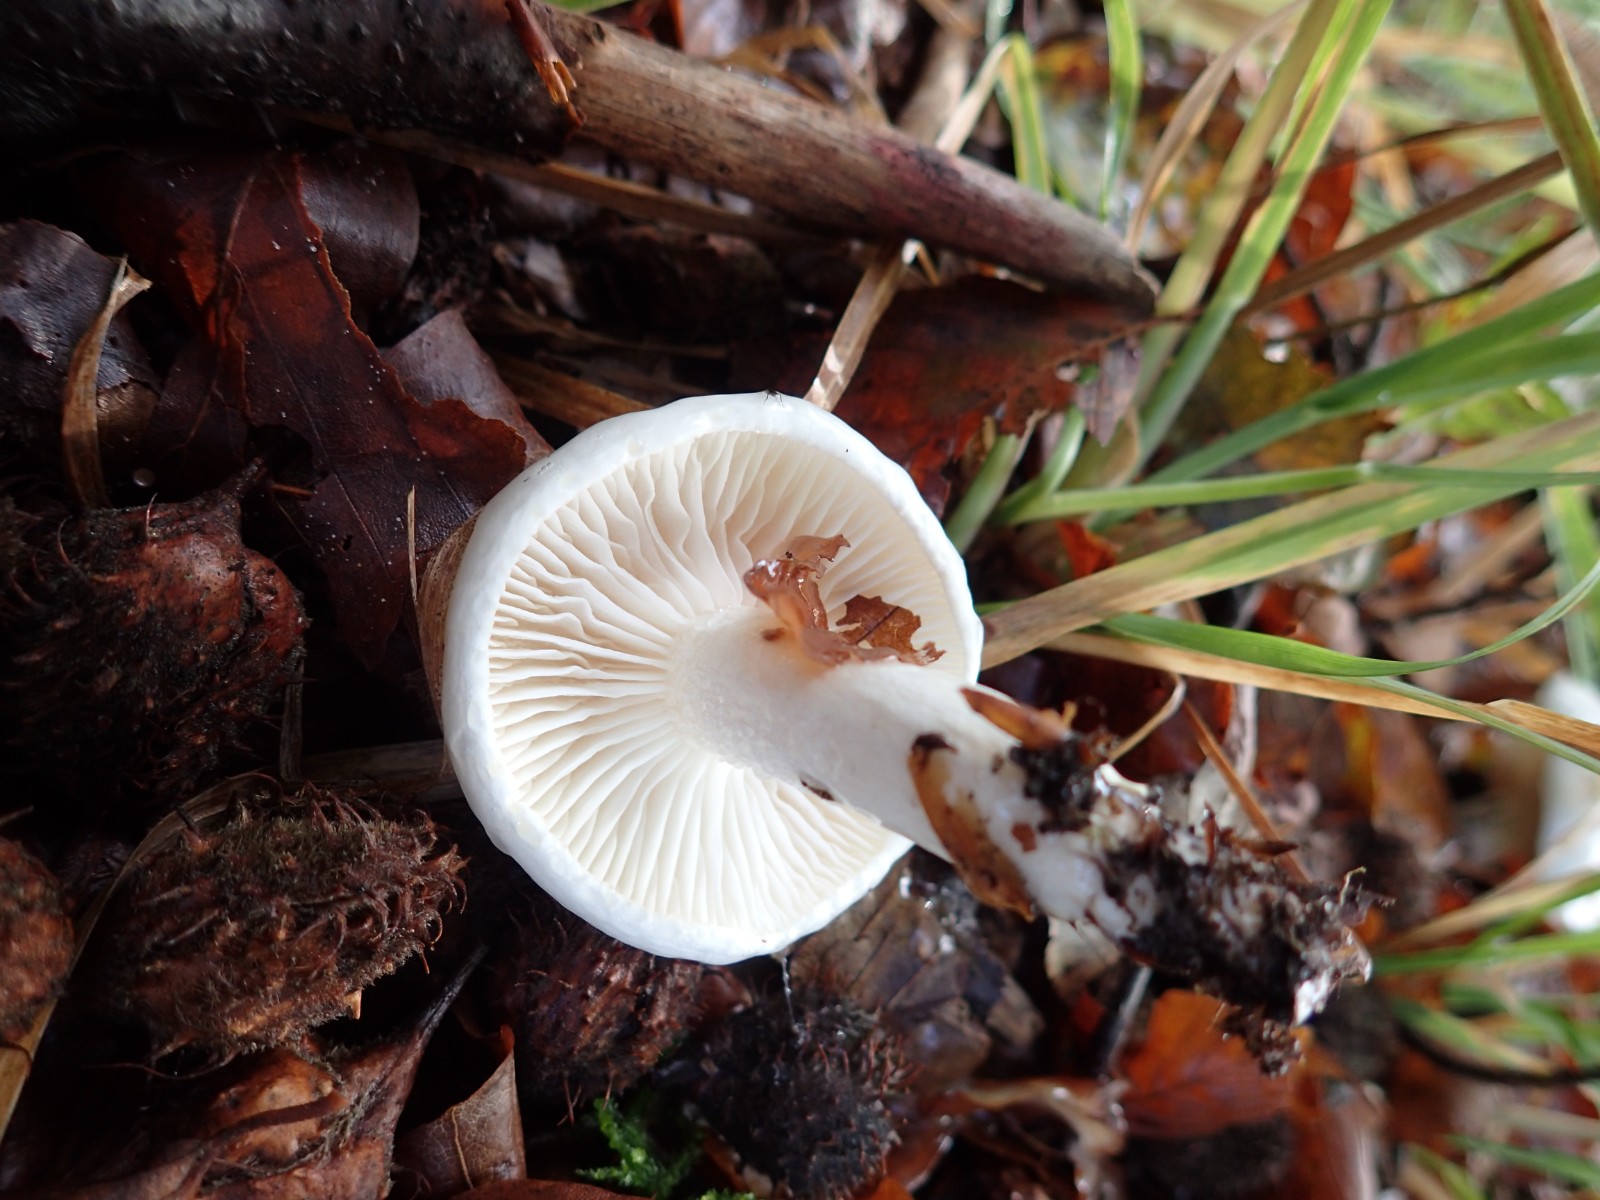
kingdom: Fungi
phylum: Basidiomycota
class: Agaricomycetes
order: Agaricales
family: Hygrophoraceae
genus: Hygrophorus
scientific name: Hygrophorus eburneus
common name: elfenbens-sneglehat
